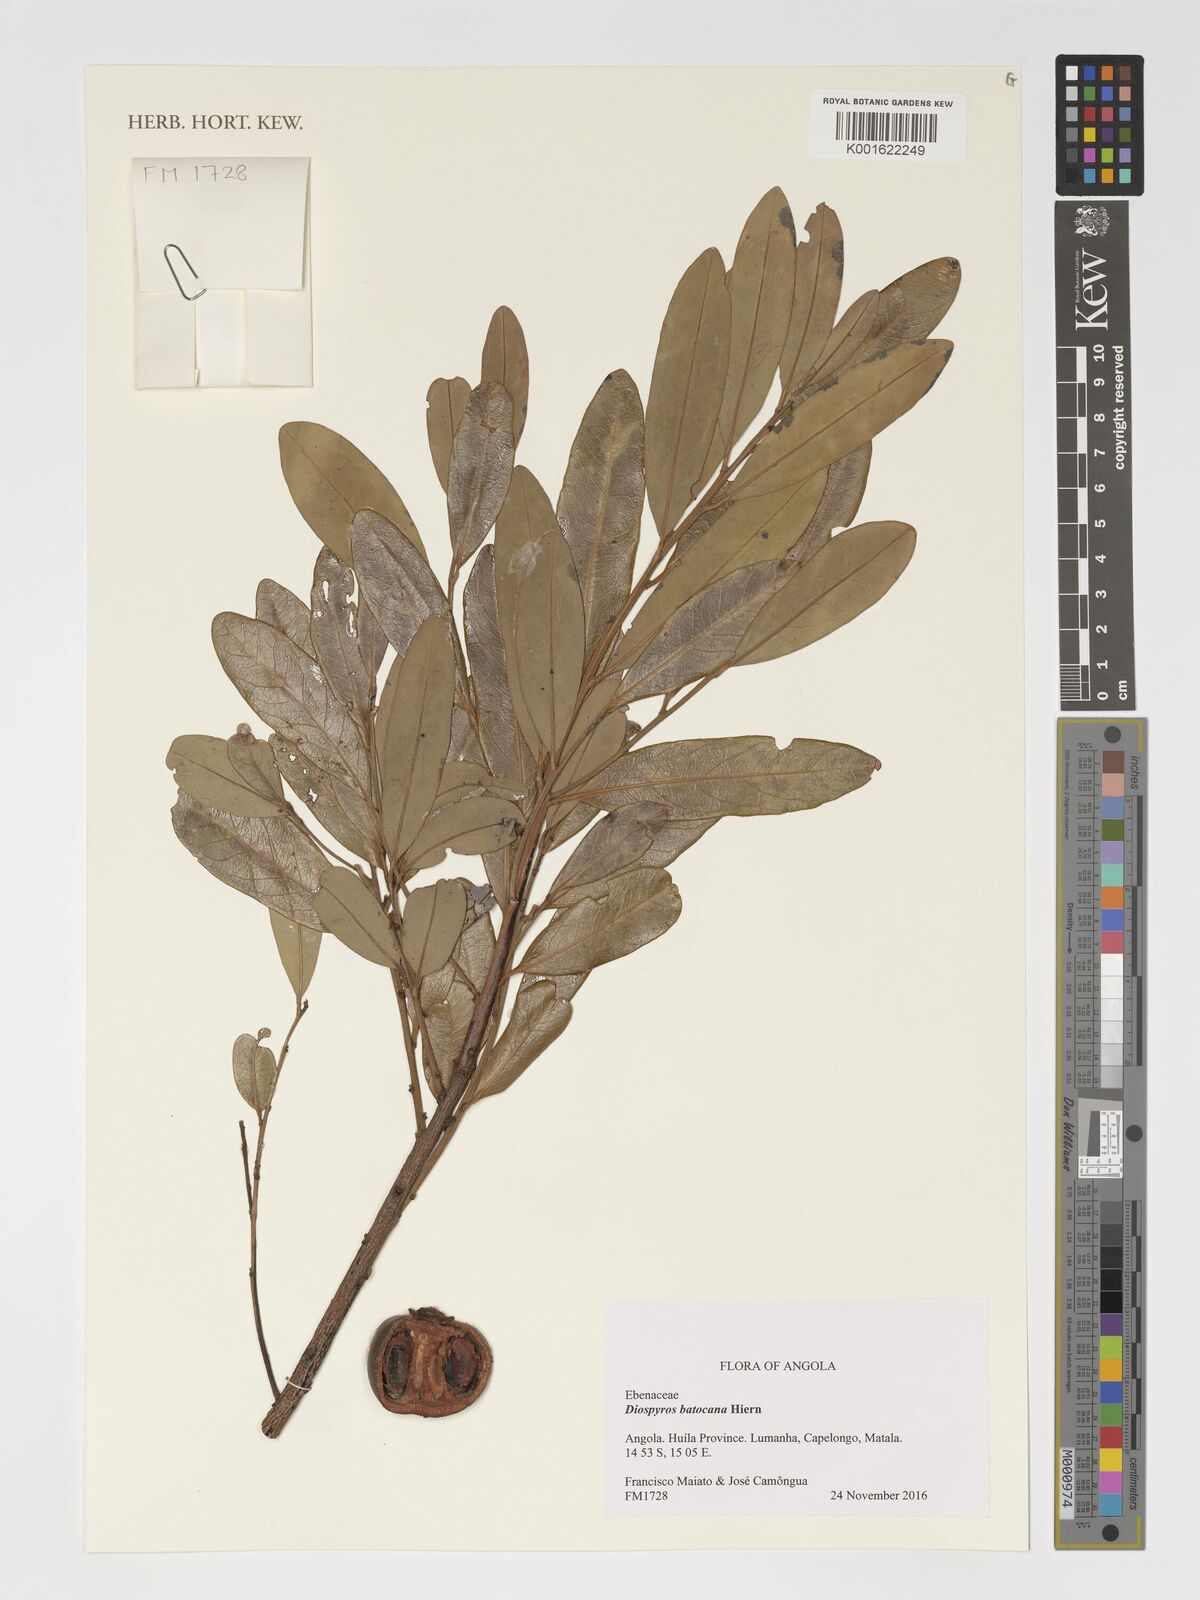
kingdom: Plantae
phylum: Tracheophyta
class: Magnoliopsida
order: Ericales
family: Ebenaceae
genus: Diospyros
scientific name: Diospyros batocana
